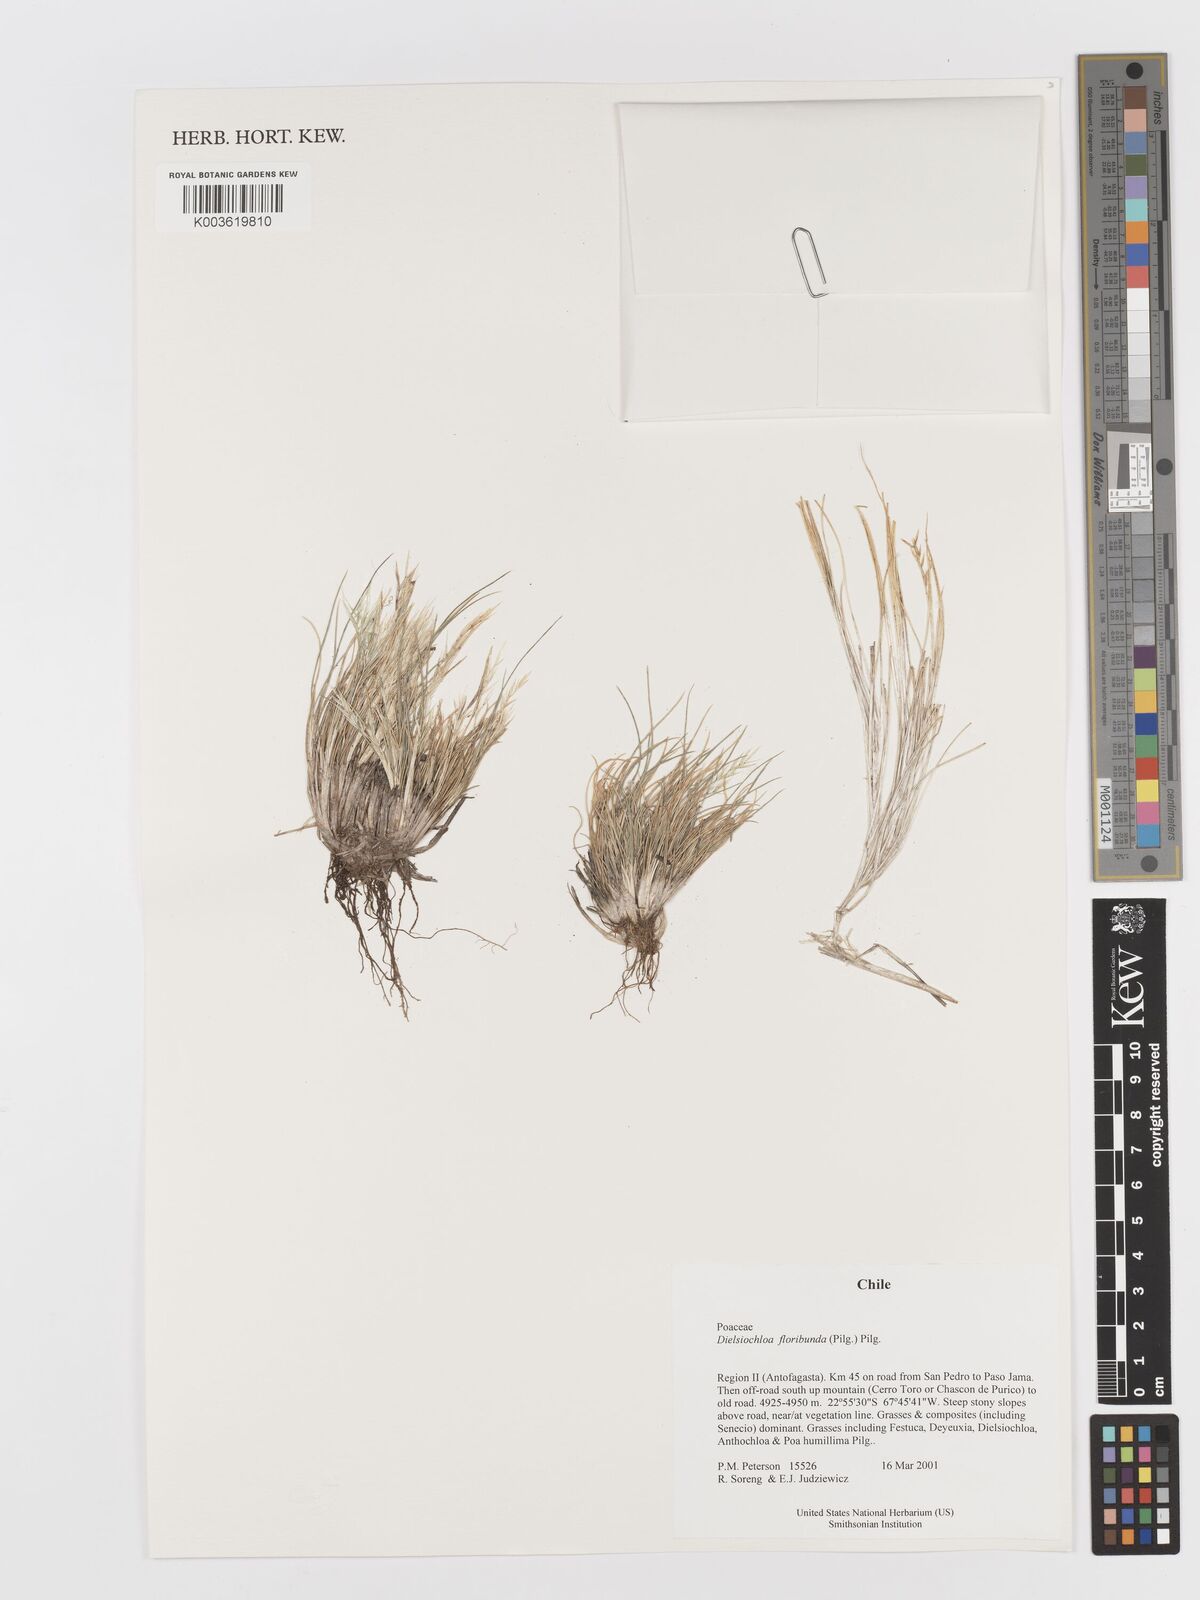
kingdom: Plantae
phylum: Tracheophyta
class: Liliopsida
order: Poales
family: Poaceae
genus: Festuca
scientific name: Festuca floribunda
